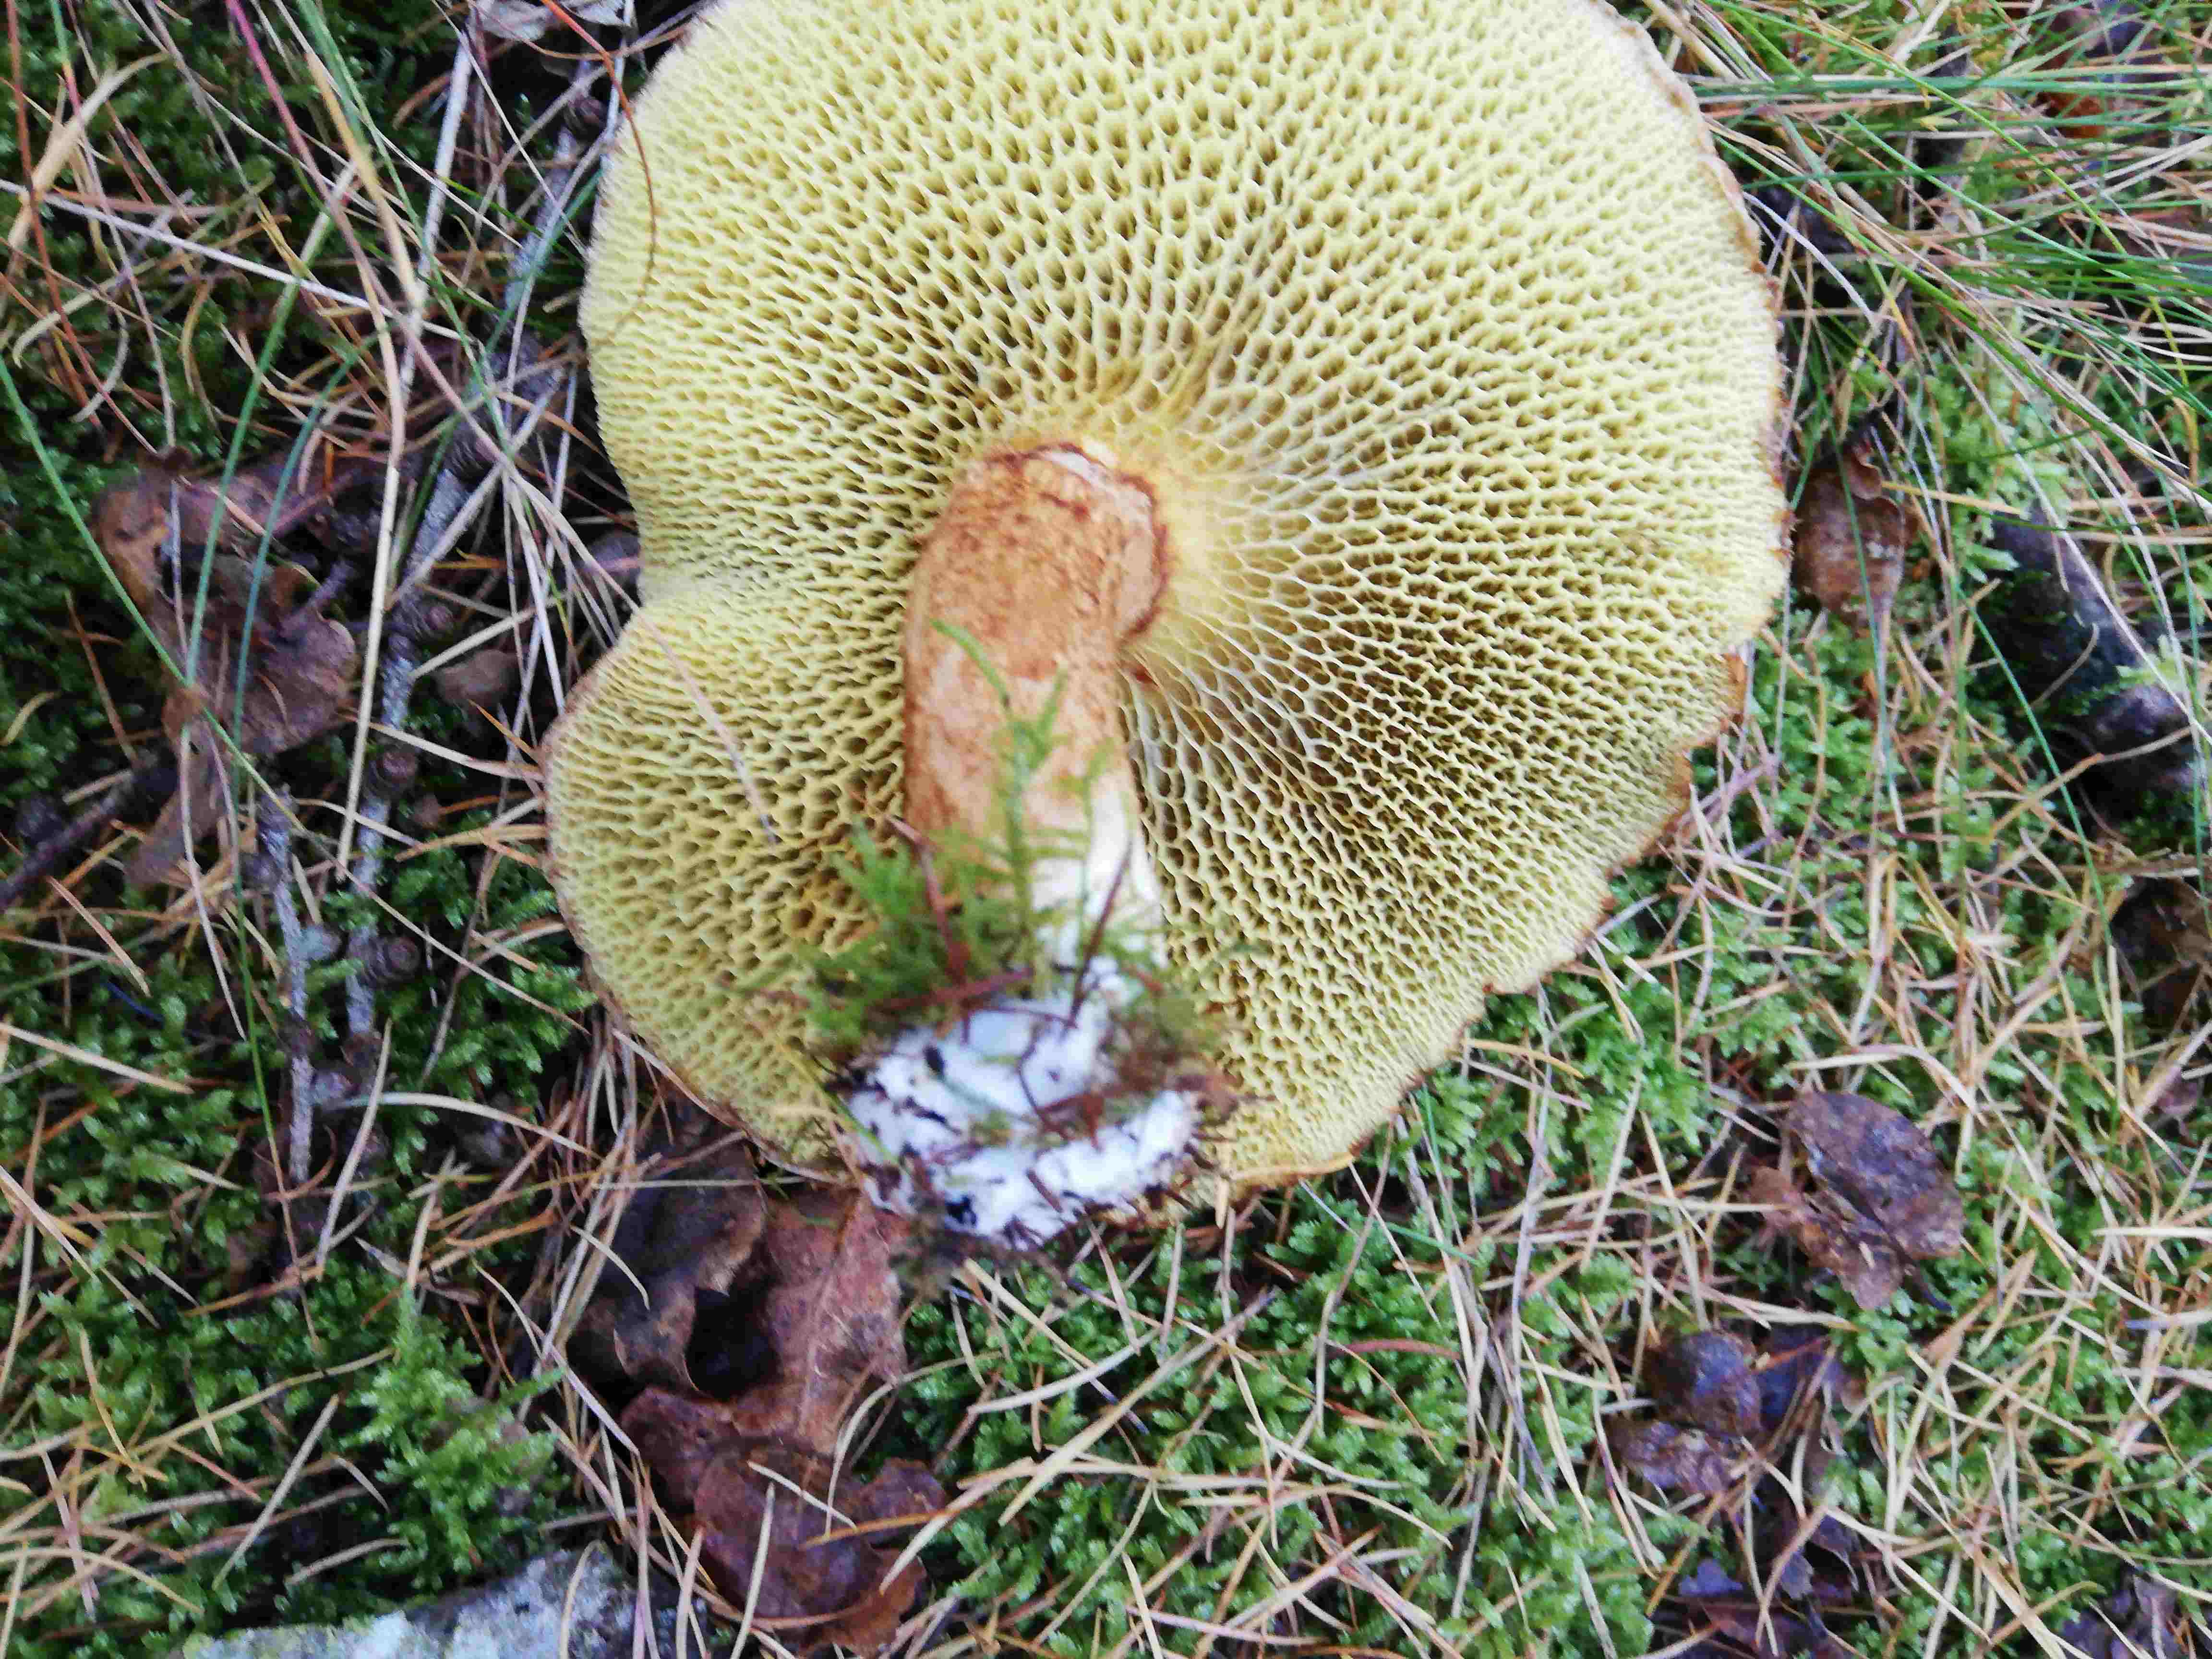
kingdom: Fungi
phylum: Basidiomycota
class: Agaricomycetes
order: Boletales
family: Suillaceae
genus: Suillus
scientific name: Suillus cavipes
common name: hulstokket slimrørhat
